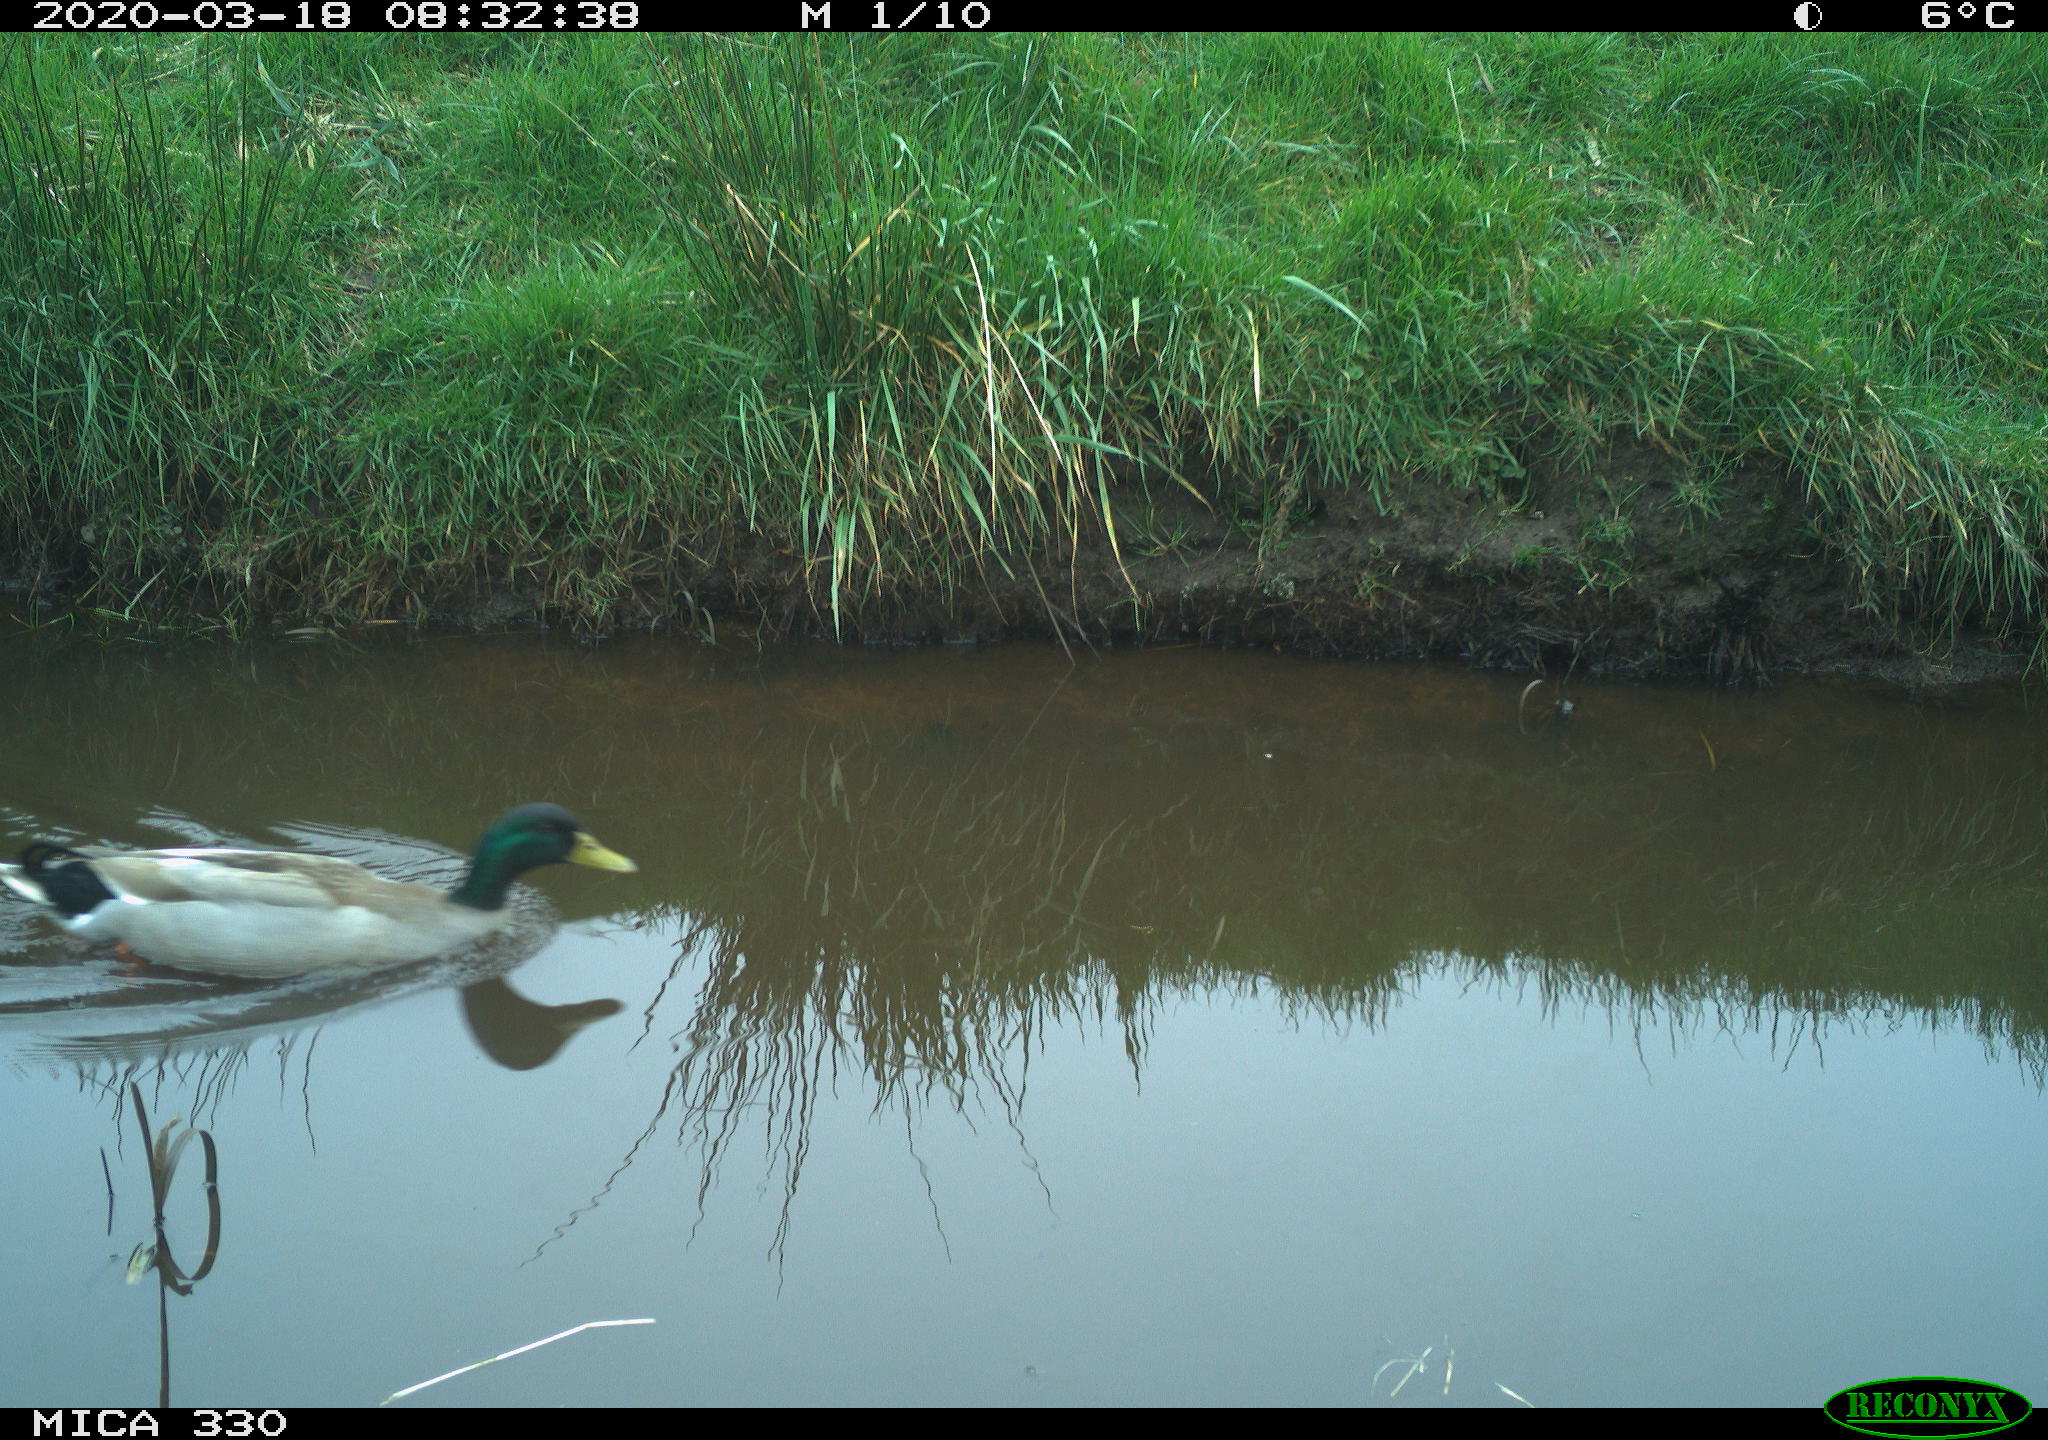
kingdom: Animalia
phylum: Chordata
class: Aves
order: Anseriformes
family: Anatidae
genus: Anas
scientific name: Anas platyrhynchos
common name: Mallard
